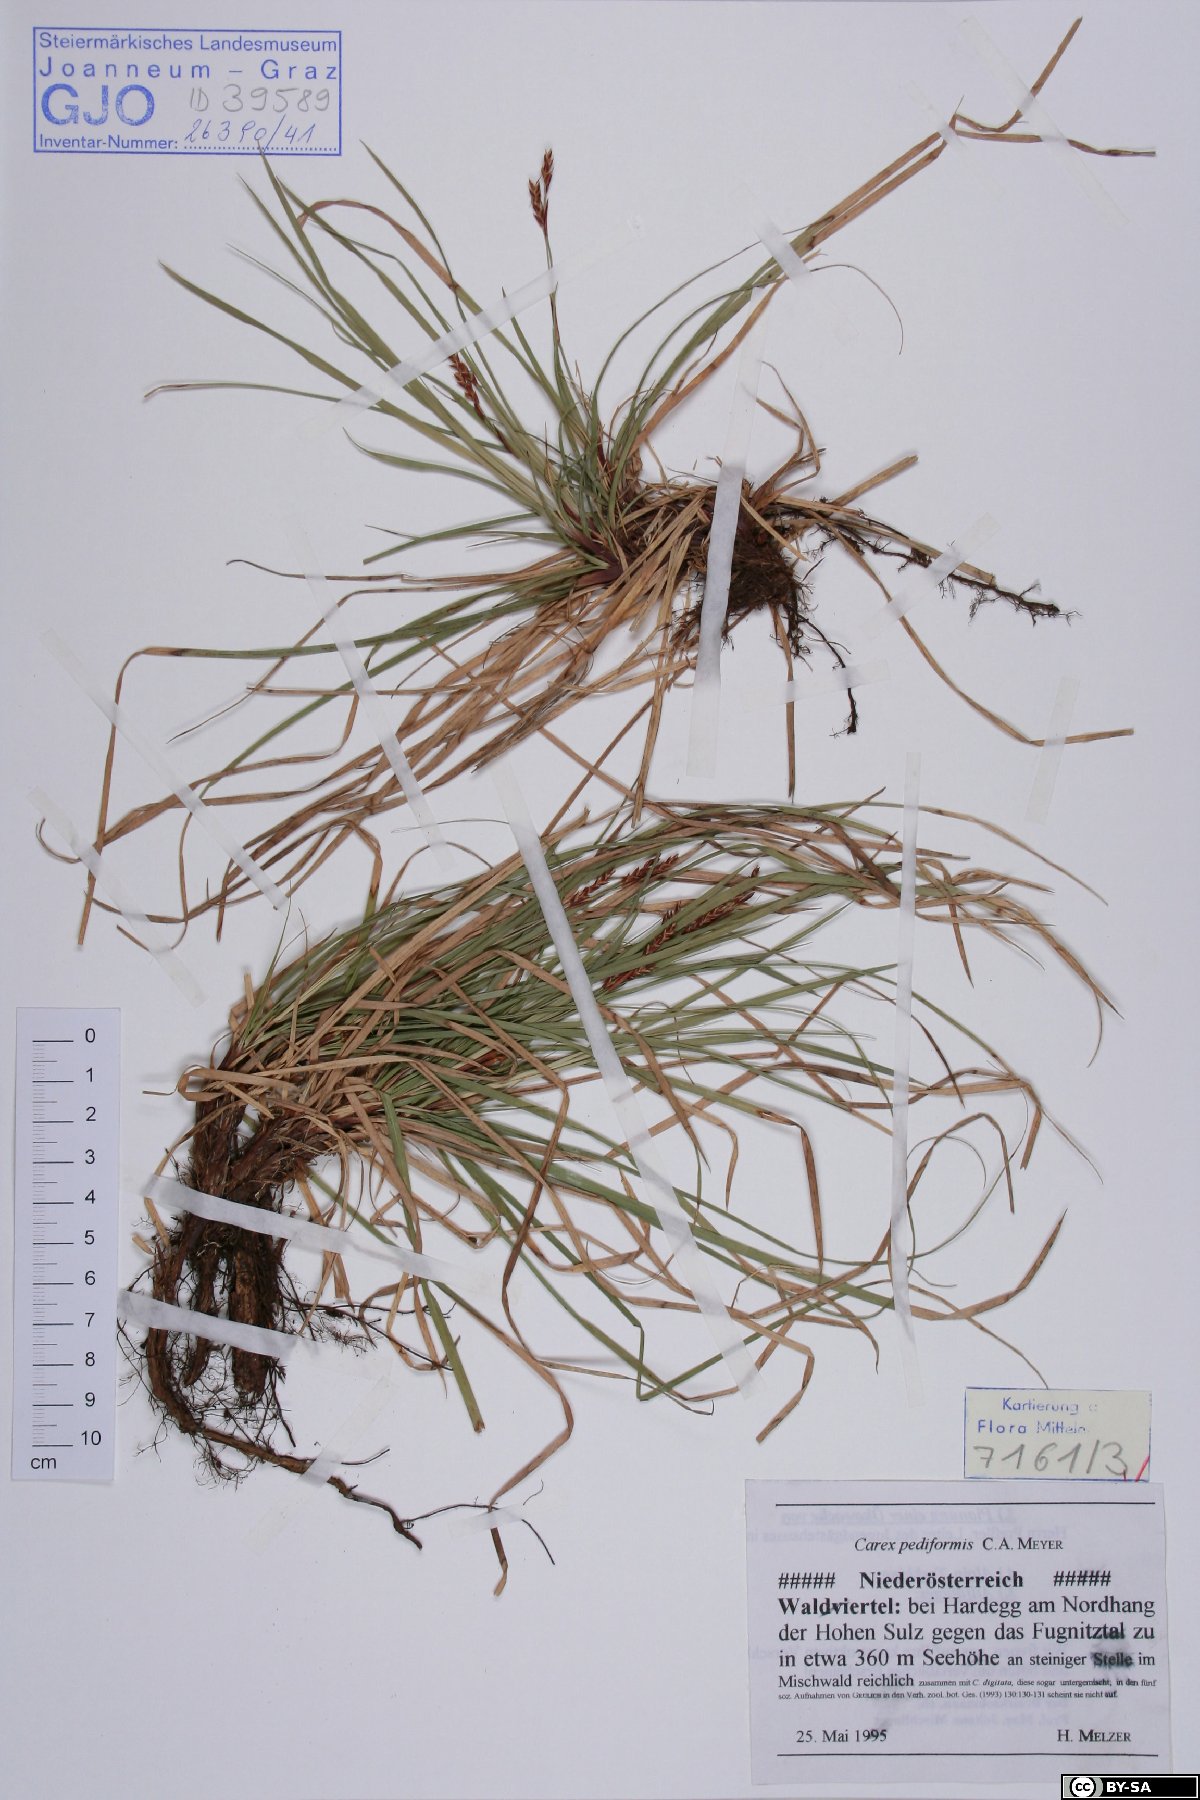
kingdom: Plantae
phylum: Tracheophyta
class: Liliopsida
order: Poales
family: Cyperaceae
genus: Carex
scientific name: Carex pediformis
